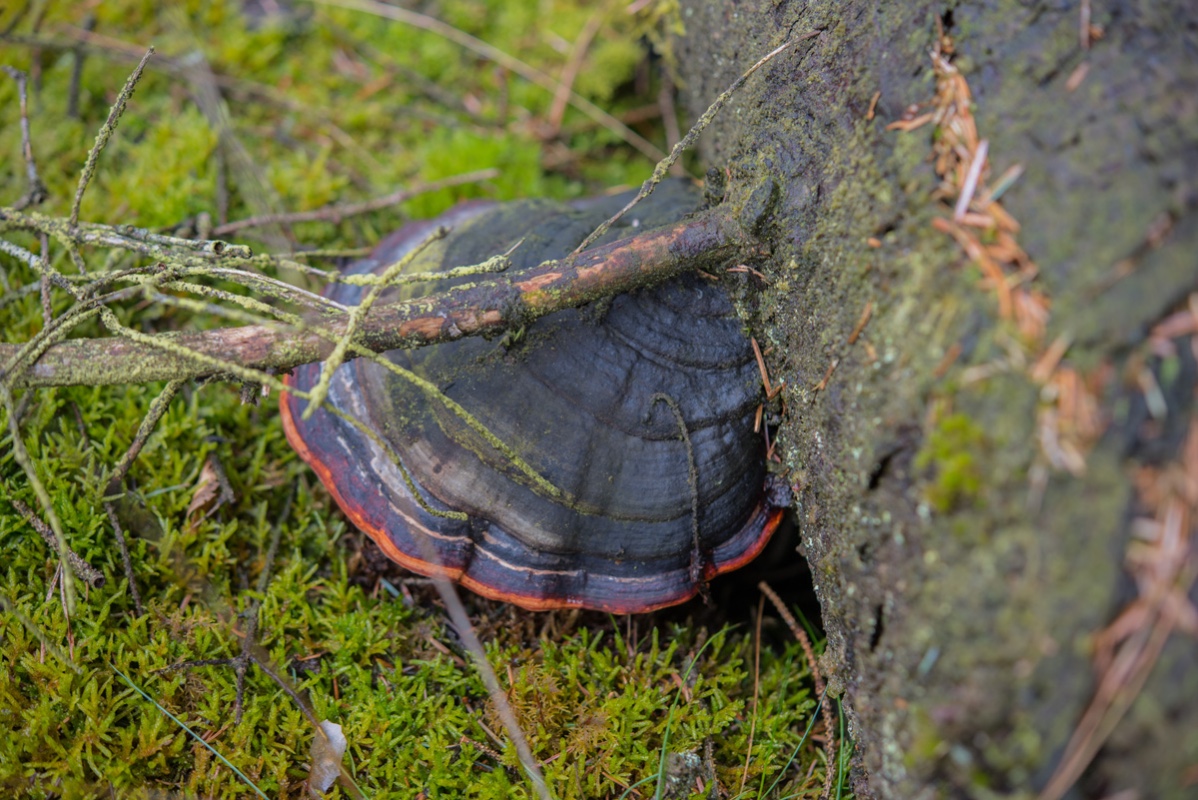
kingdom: Fungi
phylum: Basidiomycota
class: Agaricomycetes
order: Polyporales
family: Fomitopsidaceae
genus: Fomitopsis
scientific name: Fomitopsis pinicola
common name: randbæltet hovporesvamp
